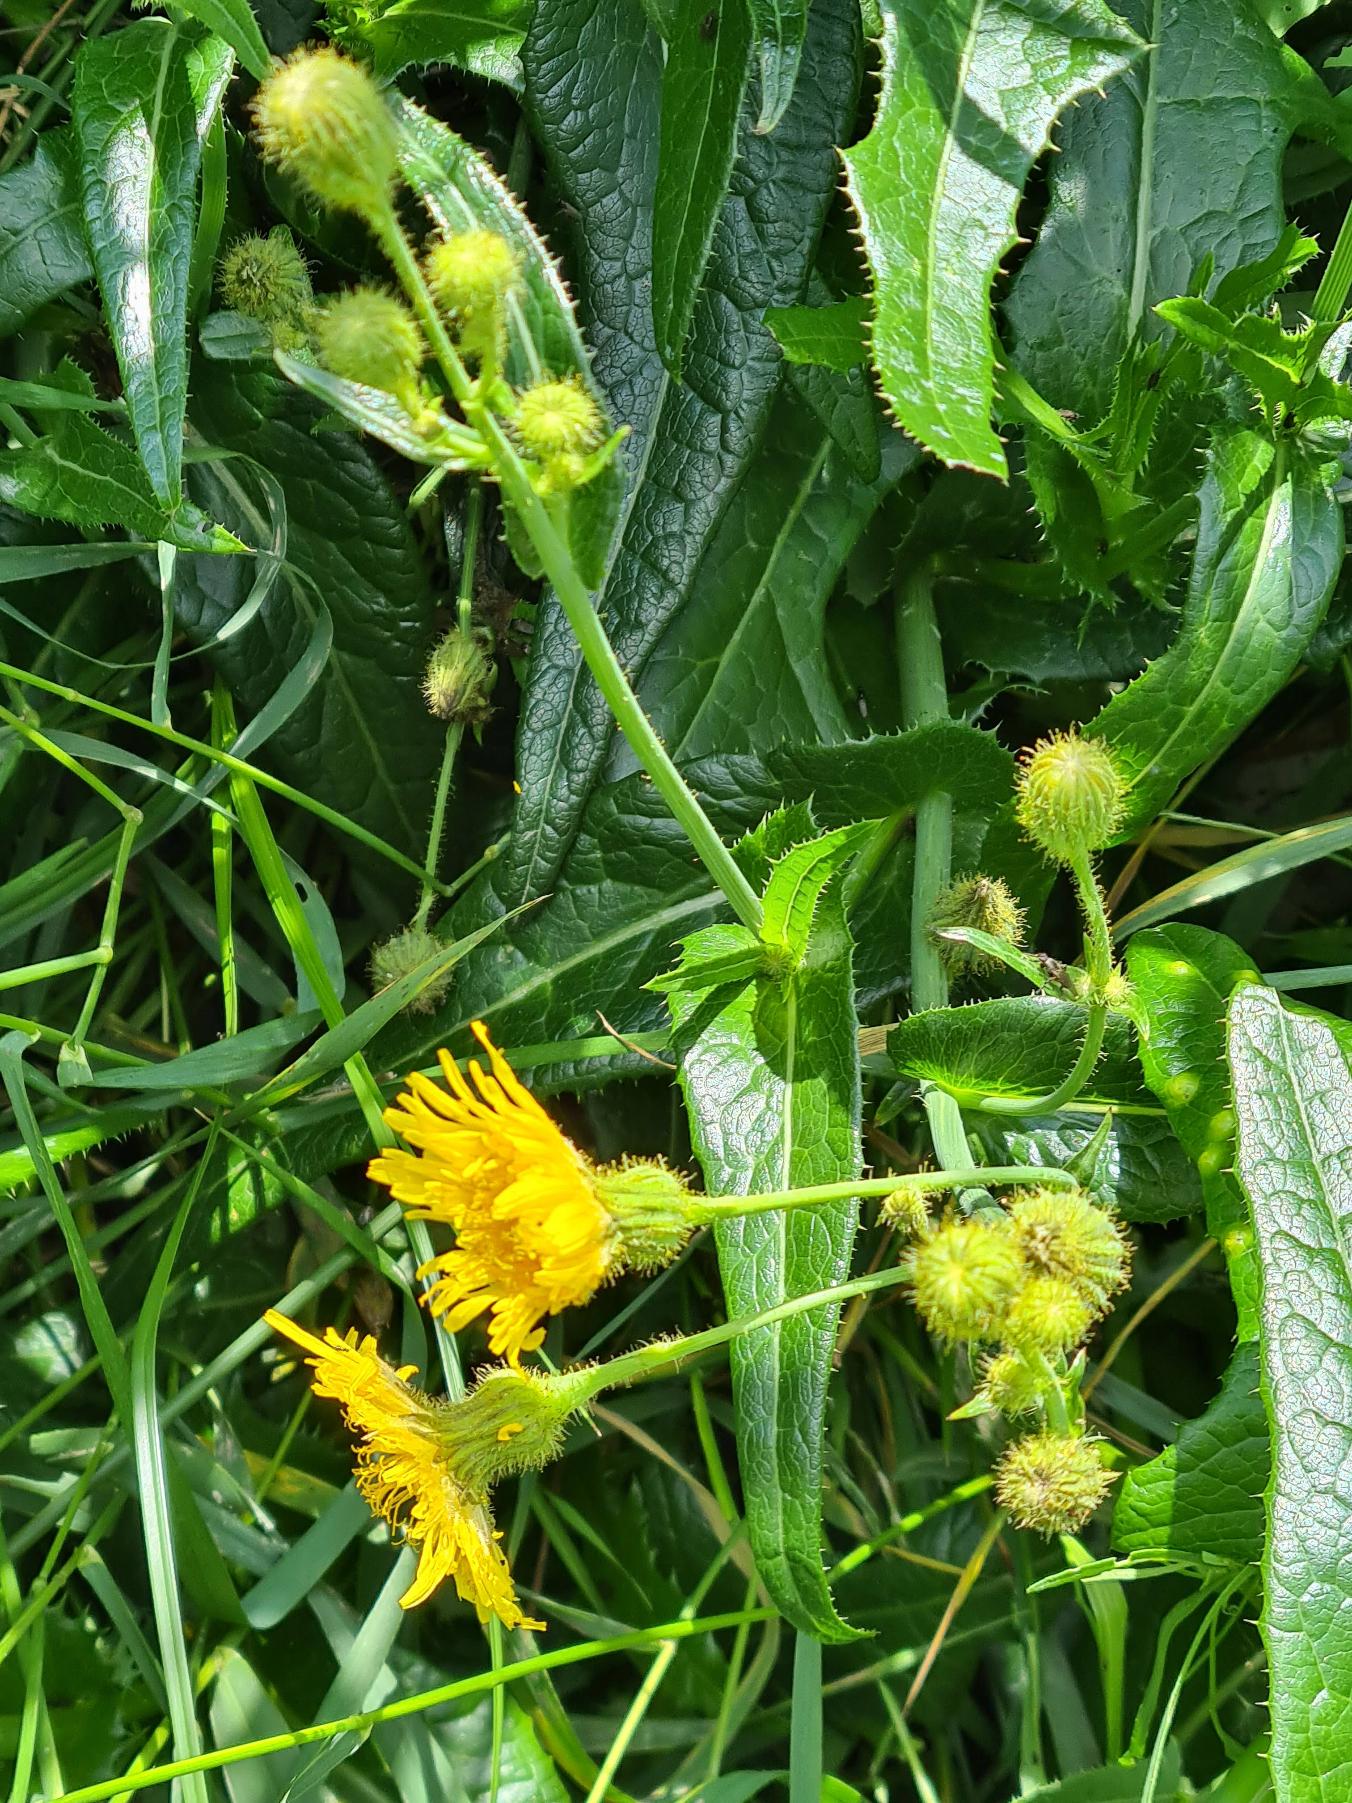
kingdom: Plantae
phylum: Tracheophyta
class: Magnoliopsida
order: Asterales
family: Asteraceae
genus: Sonchus
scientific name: Sonchus arvensis
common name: Ager-svinemælk
